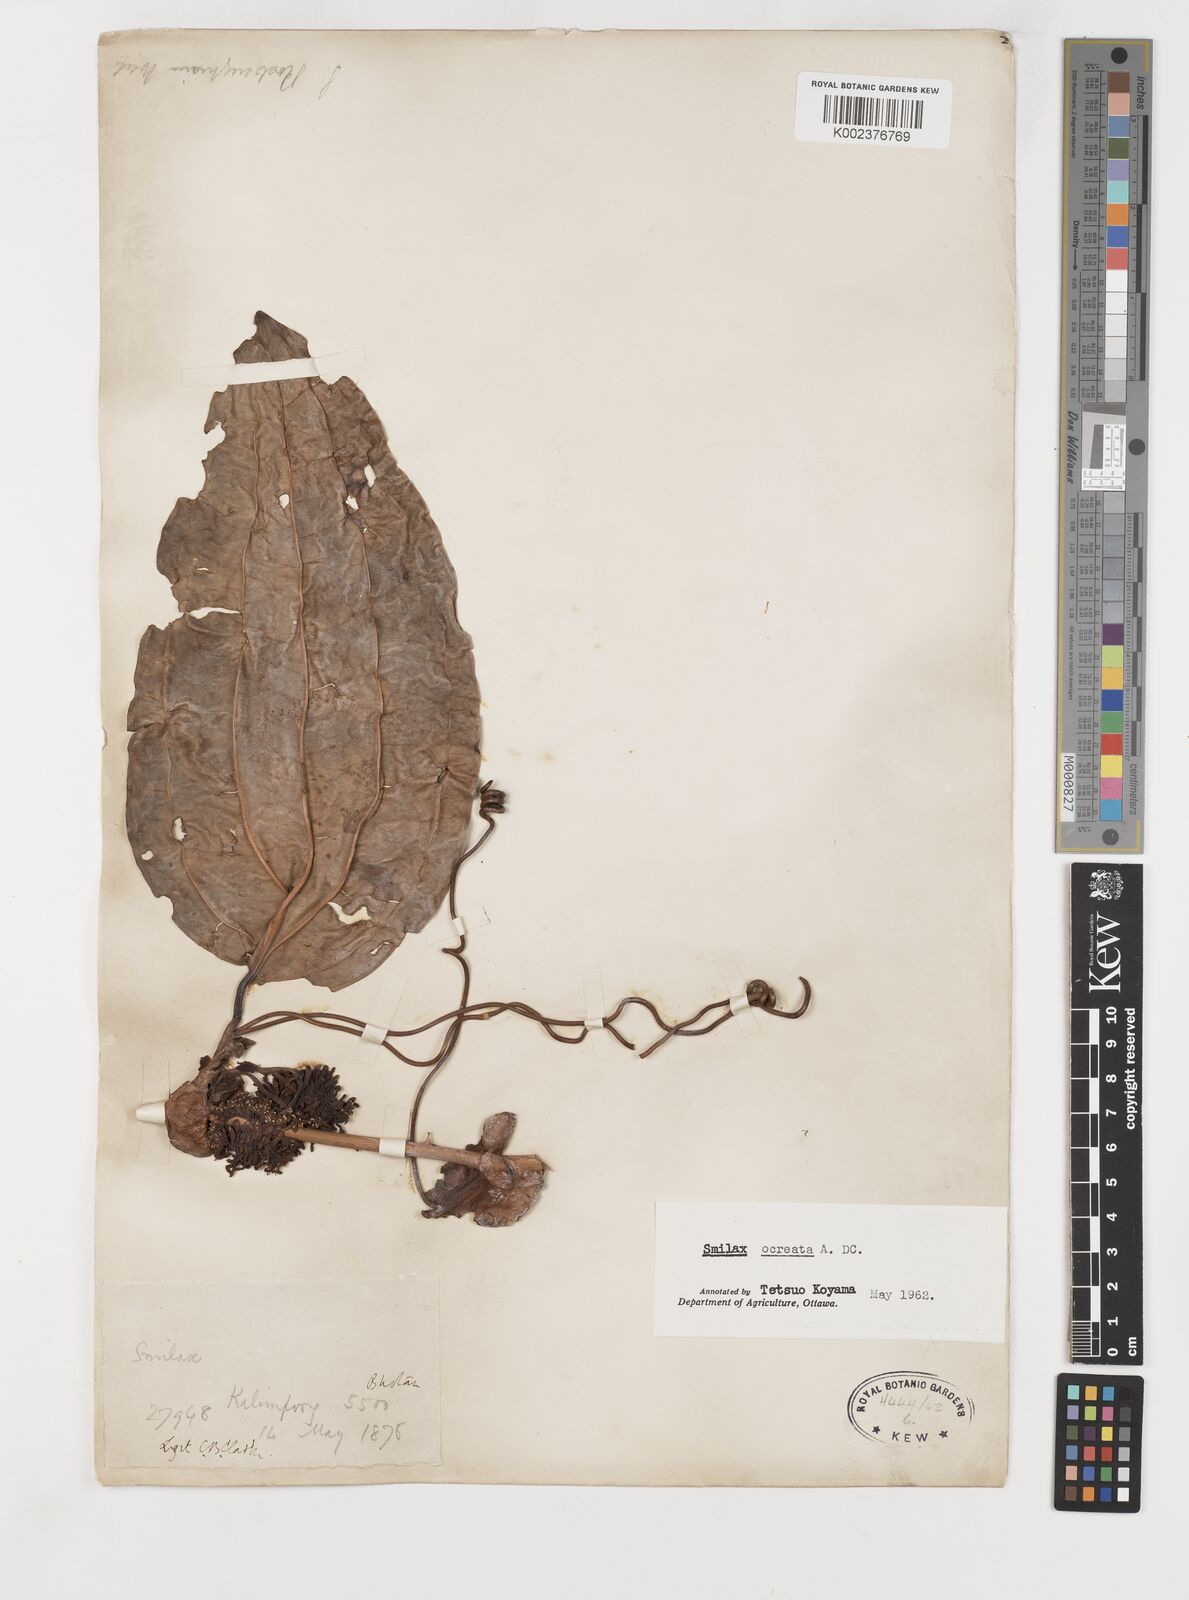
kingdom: Plantae
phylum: Tracheophyta
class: Liliopsida
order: Liliales
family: Smilacaceae
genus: Smilax
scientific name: Smilax ocreata
